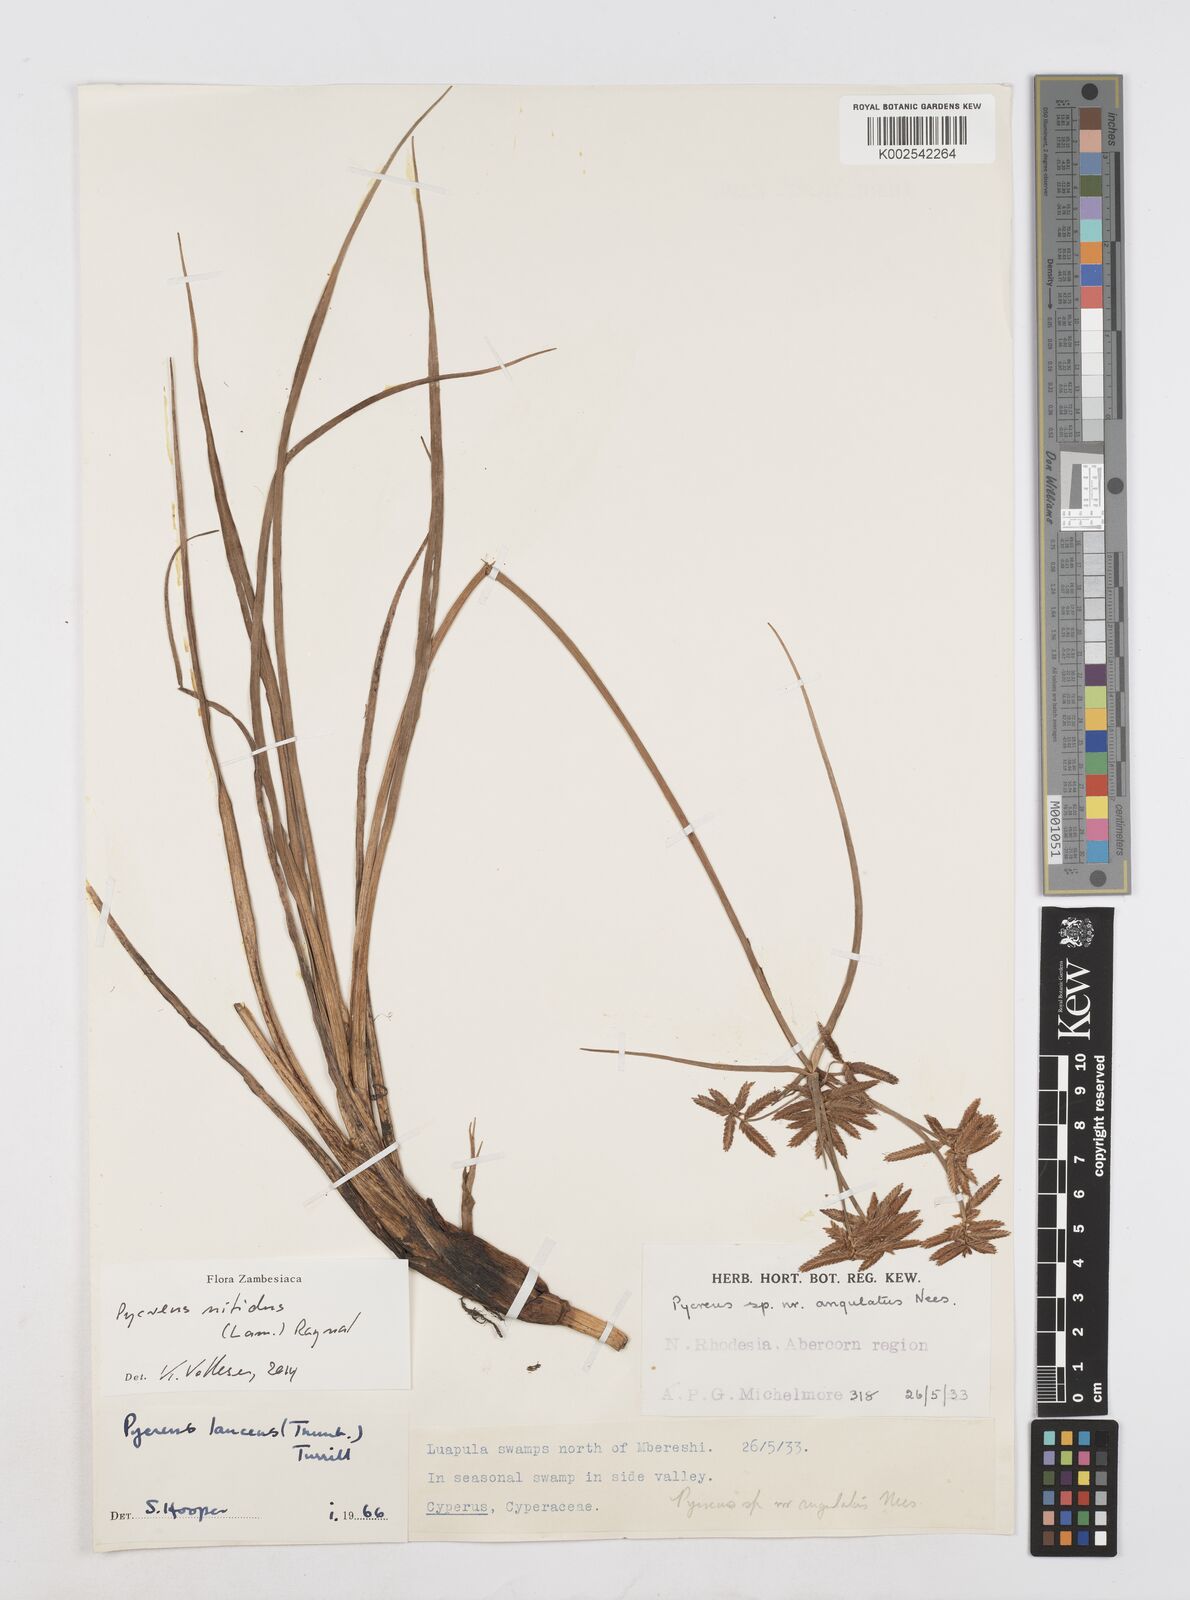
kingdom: Plantae
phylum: Tracheophyta
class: Liliopsida
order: Poales
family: Cyperaceae
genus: Cyperus
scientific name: Cyperus nitidus
